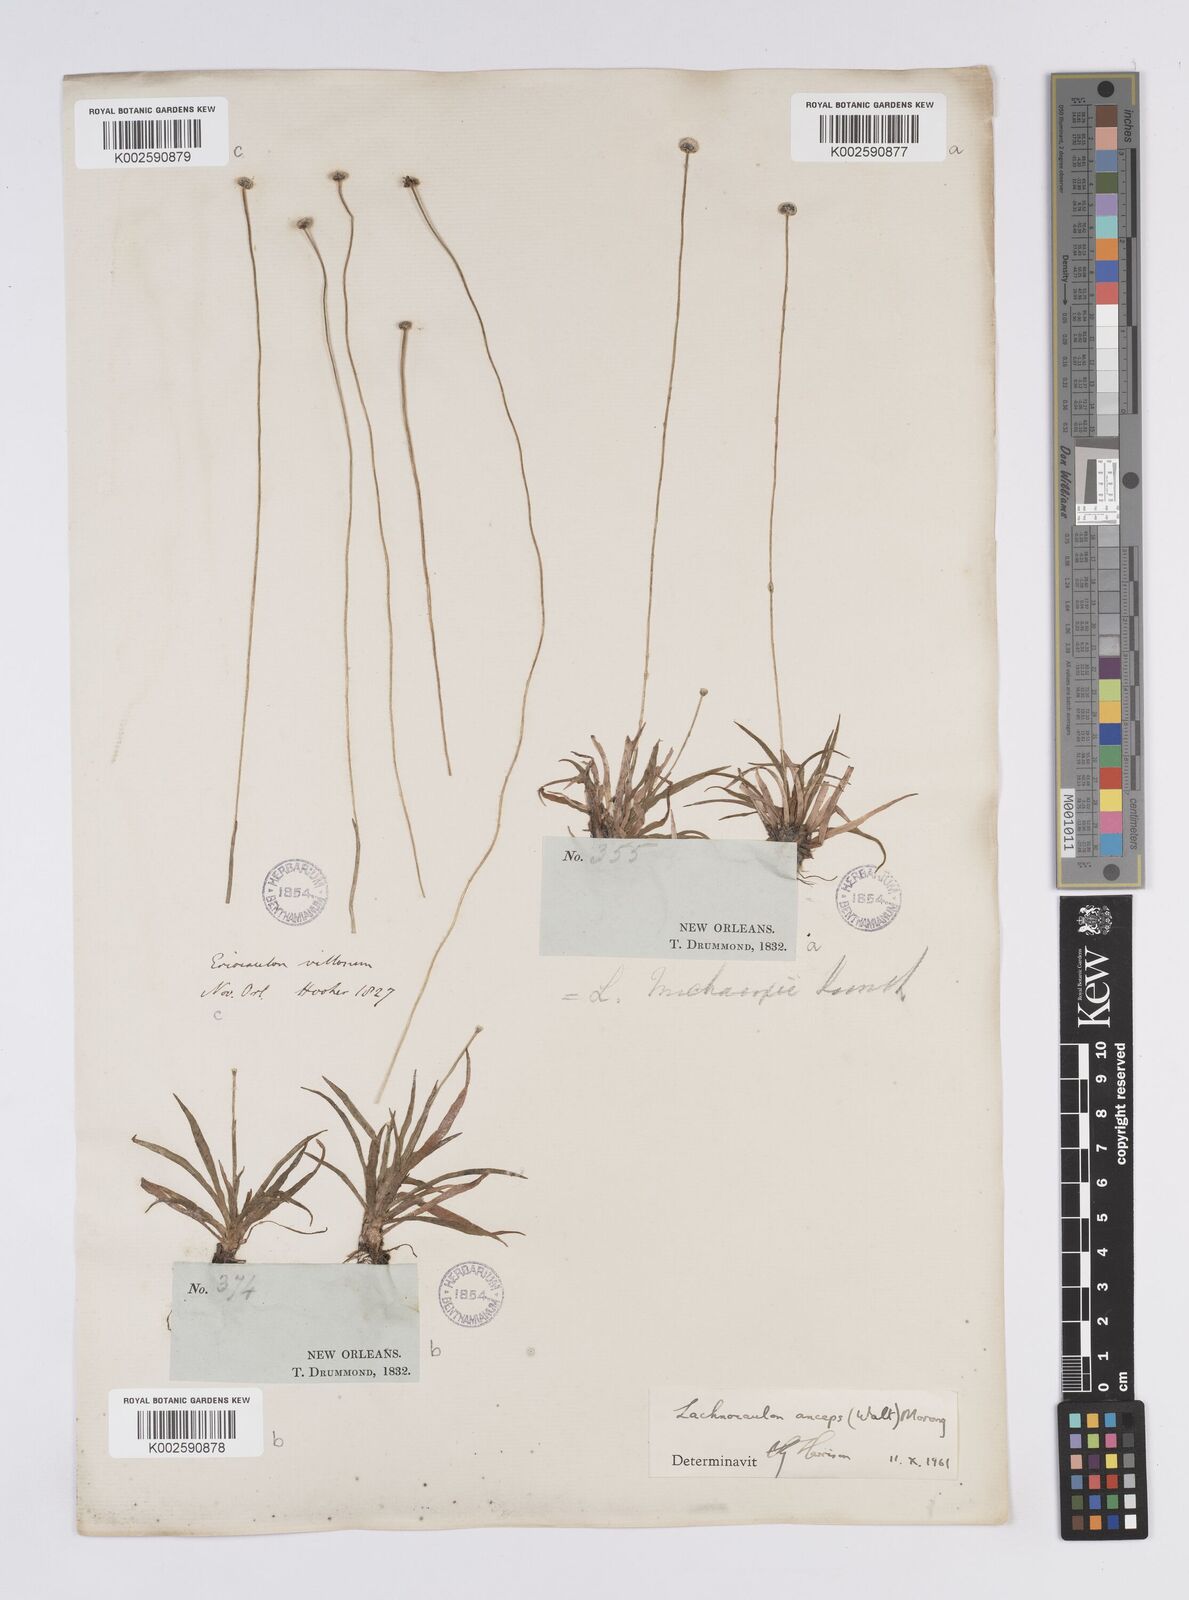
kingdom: Plantae
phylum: Tracheophyta
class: Liliopsida
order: Poales
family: Eriocaulaceae
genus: Paepalanthus
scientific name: Paepalanthus anceps
